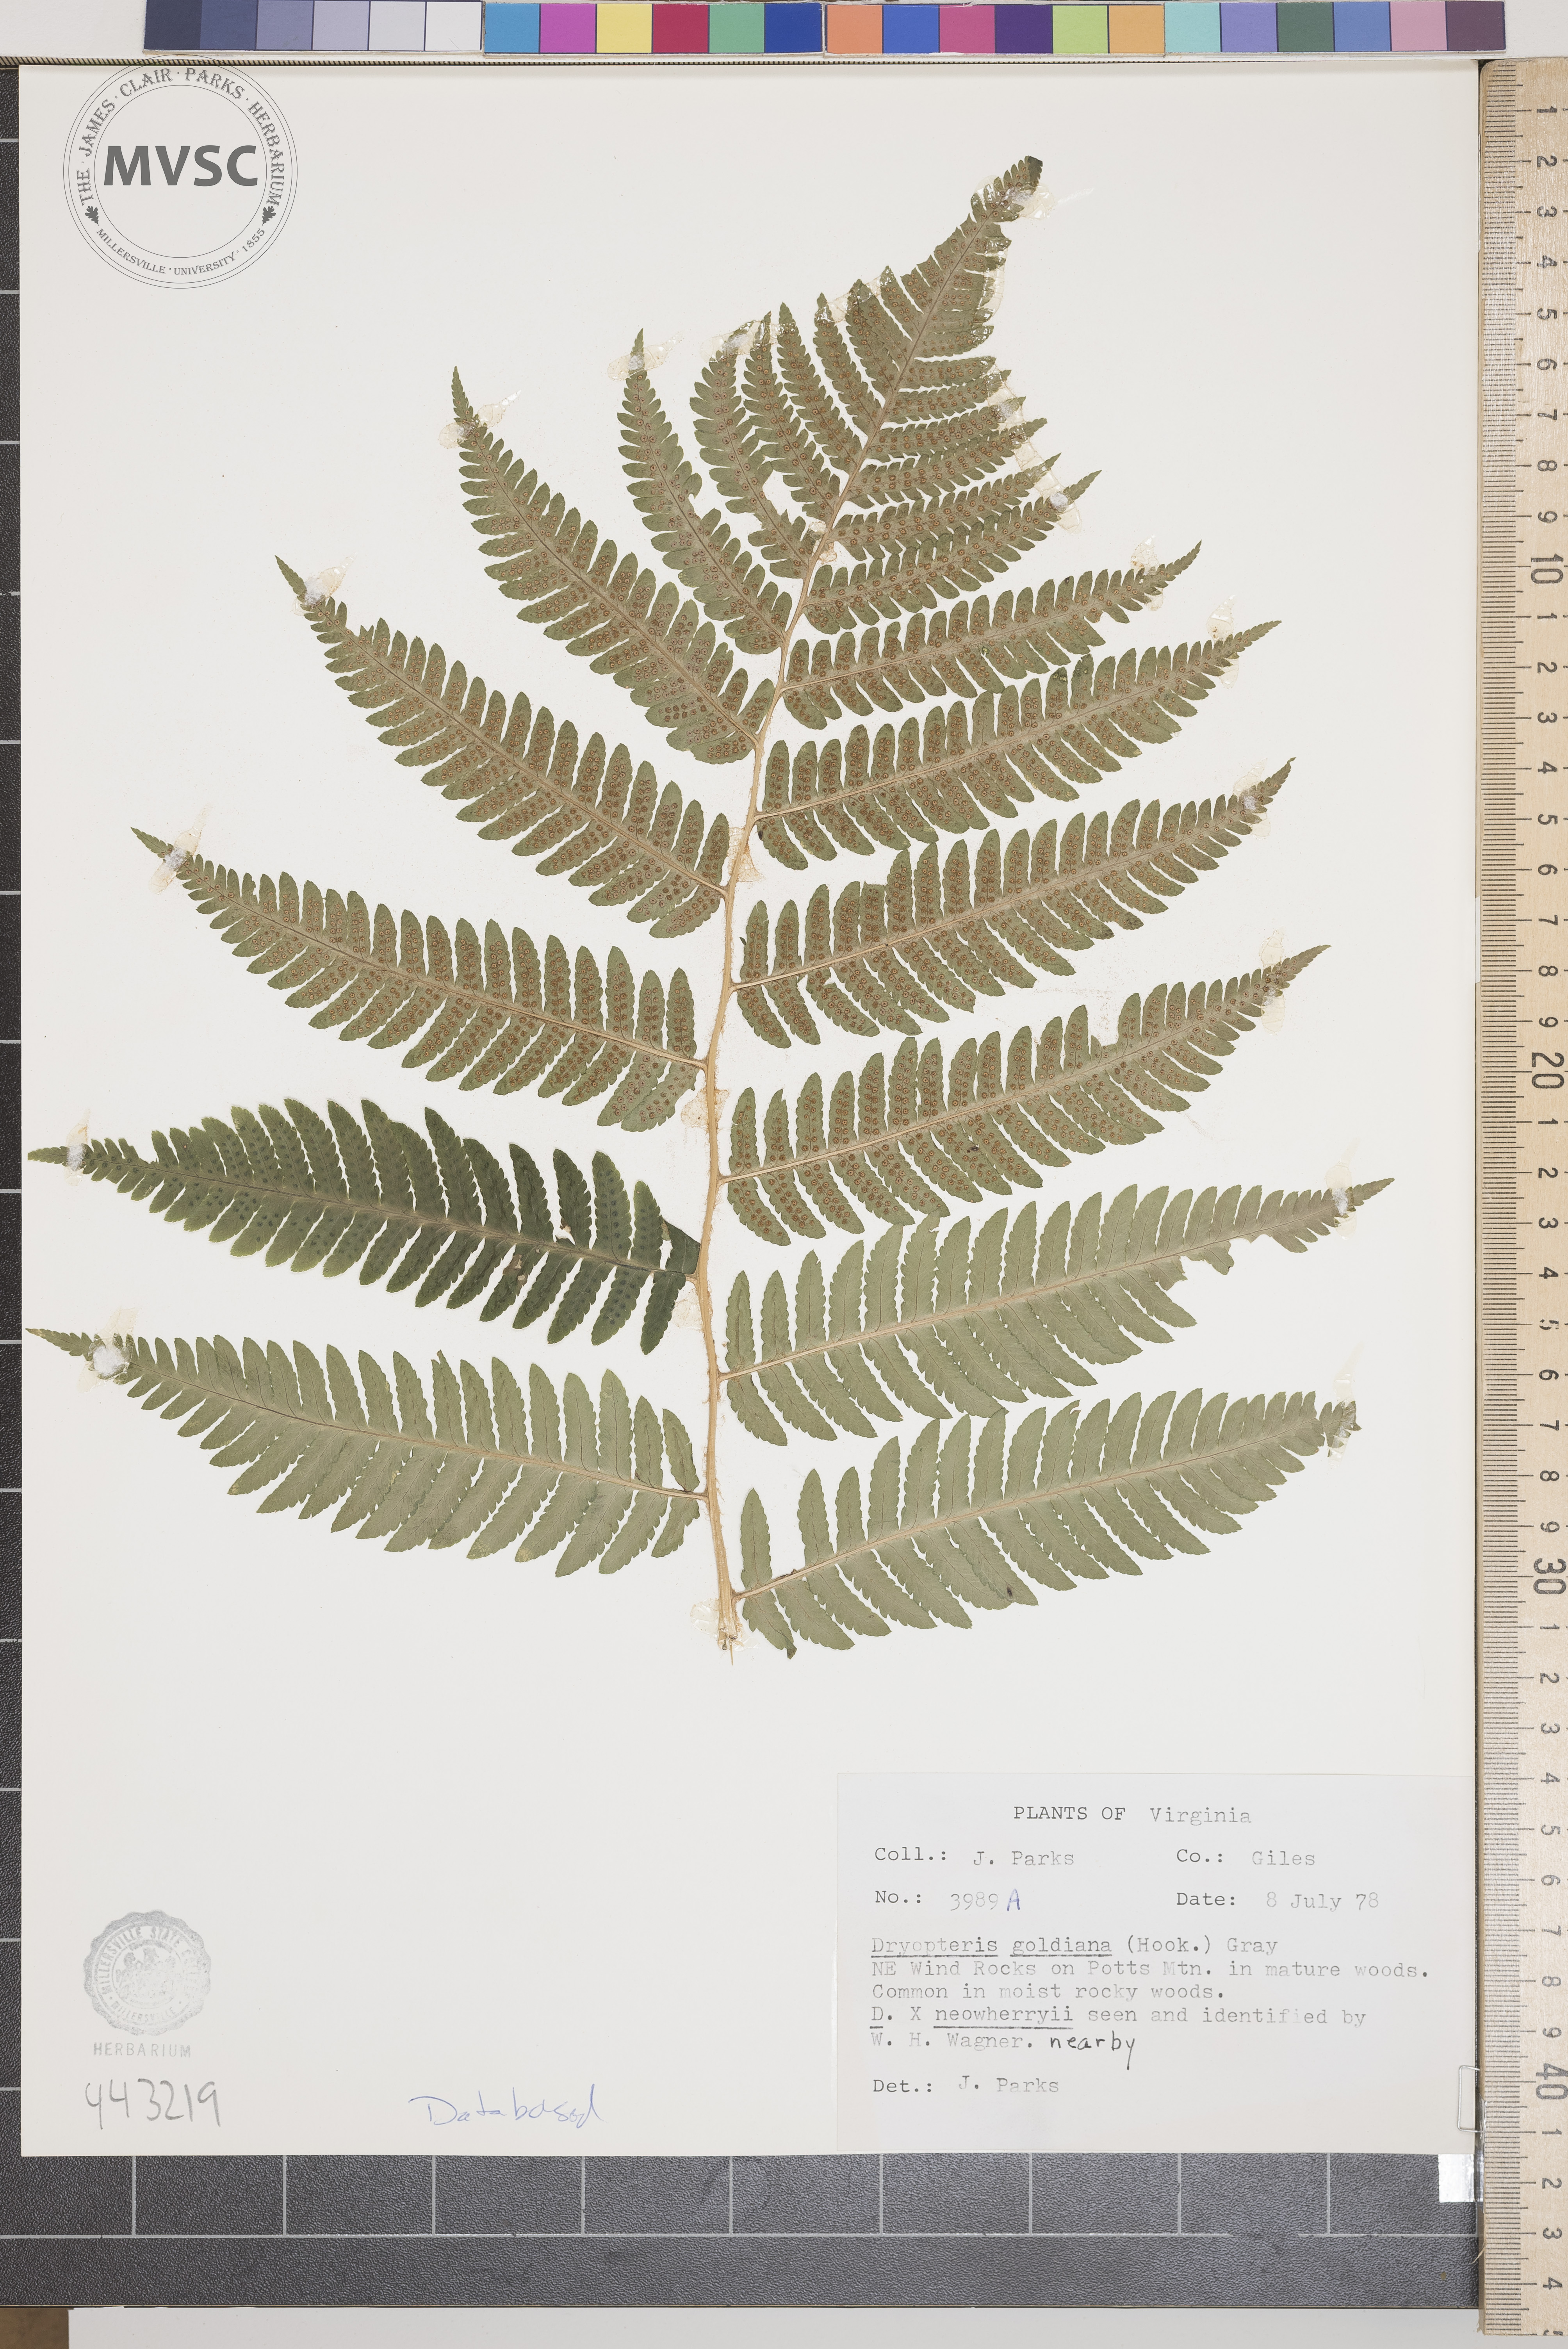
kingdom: Plantae
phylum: Tracheophyta
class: Polypodiopsida
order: Polypodiales
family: Dryopteridaceae
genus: Dryopteris
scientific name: Dryopteris goeldiana
